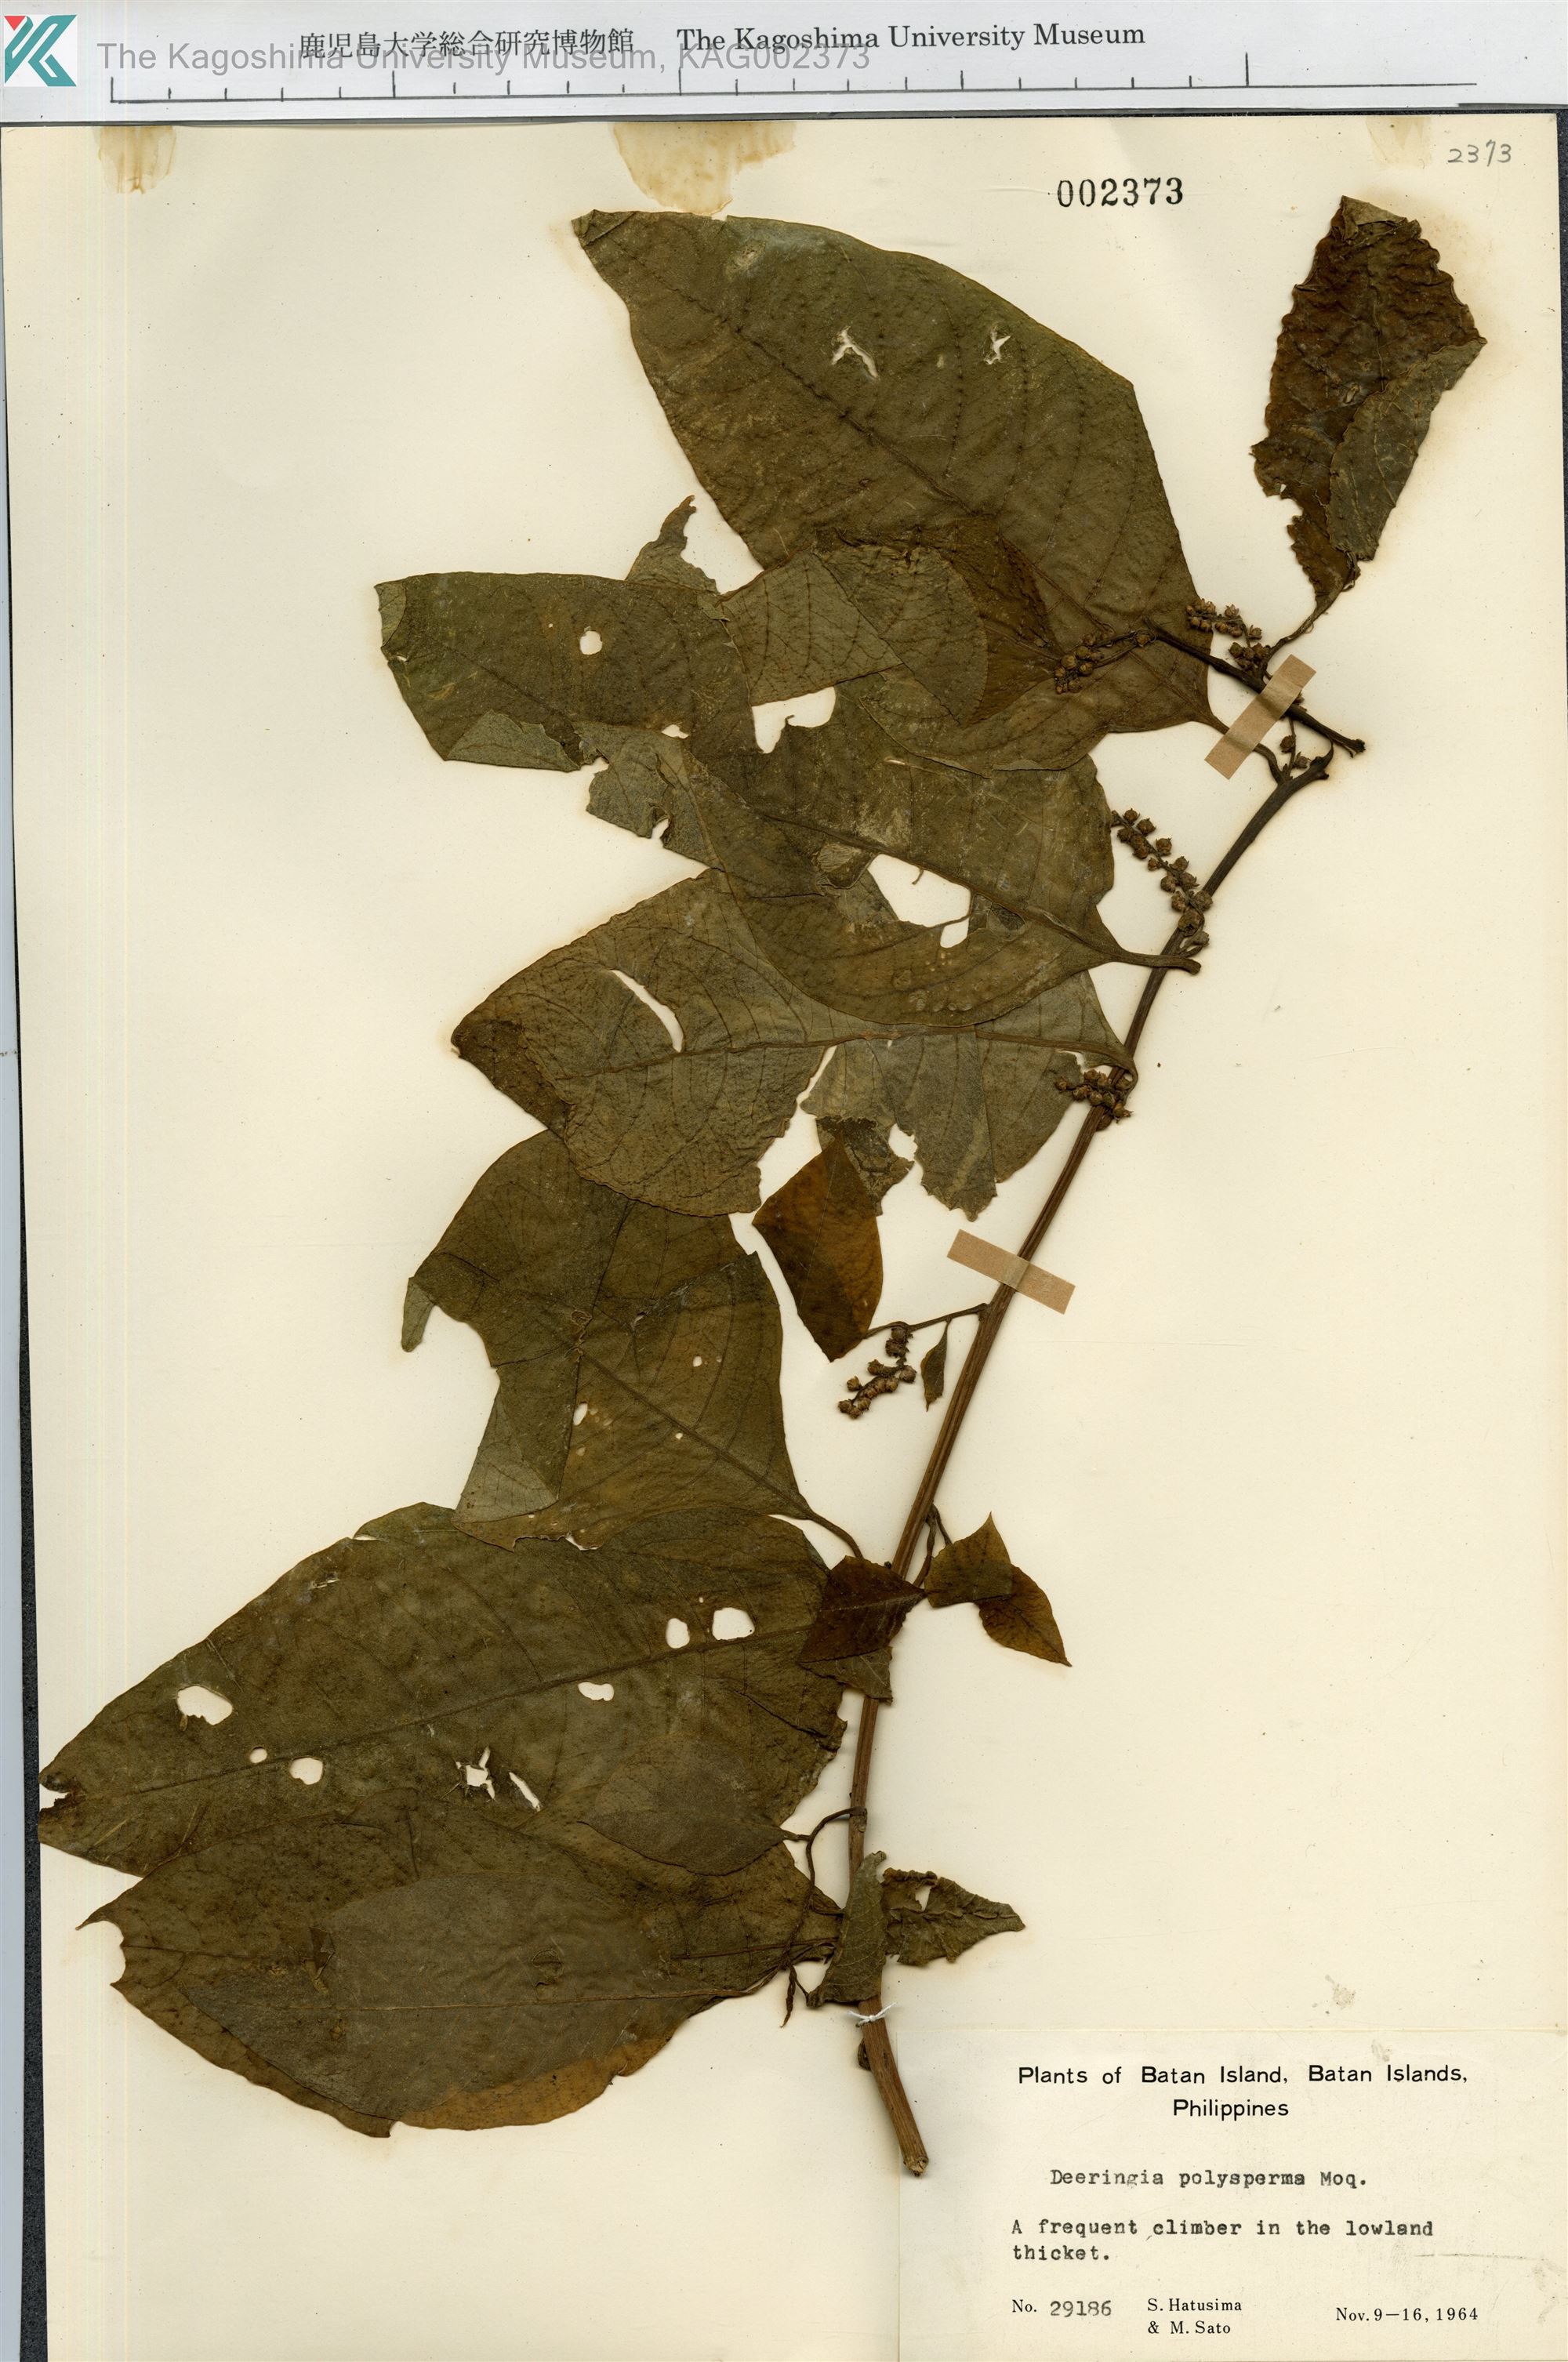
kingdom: Plantae
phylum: Tracheophyta
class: Magnoliopsida
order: Caryophyllales
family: Amaranthaceae
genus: Deeringia
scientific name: Deeringia polysperma
